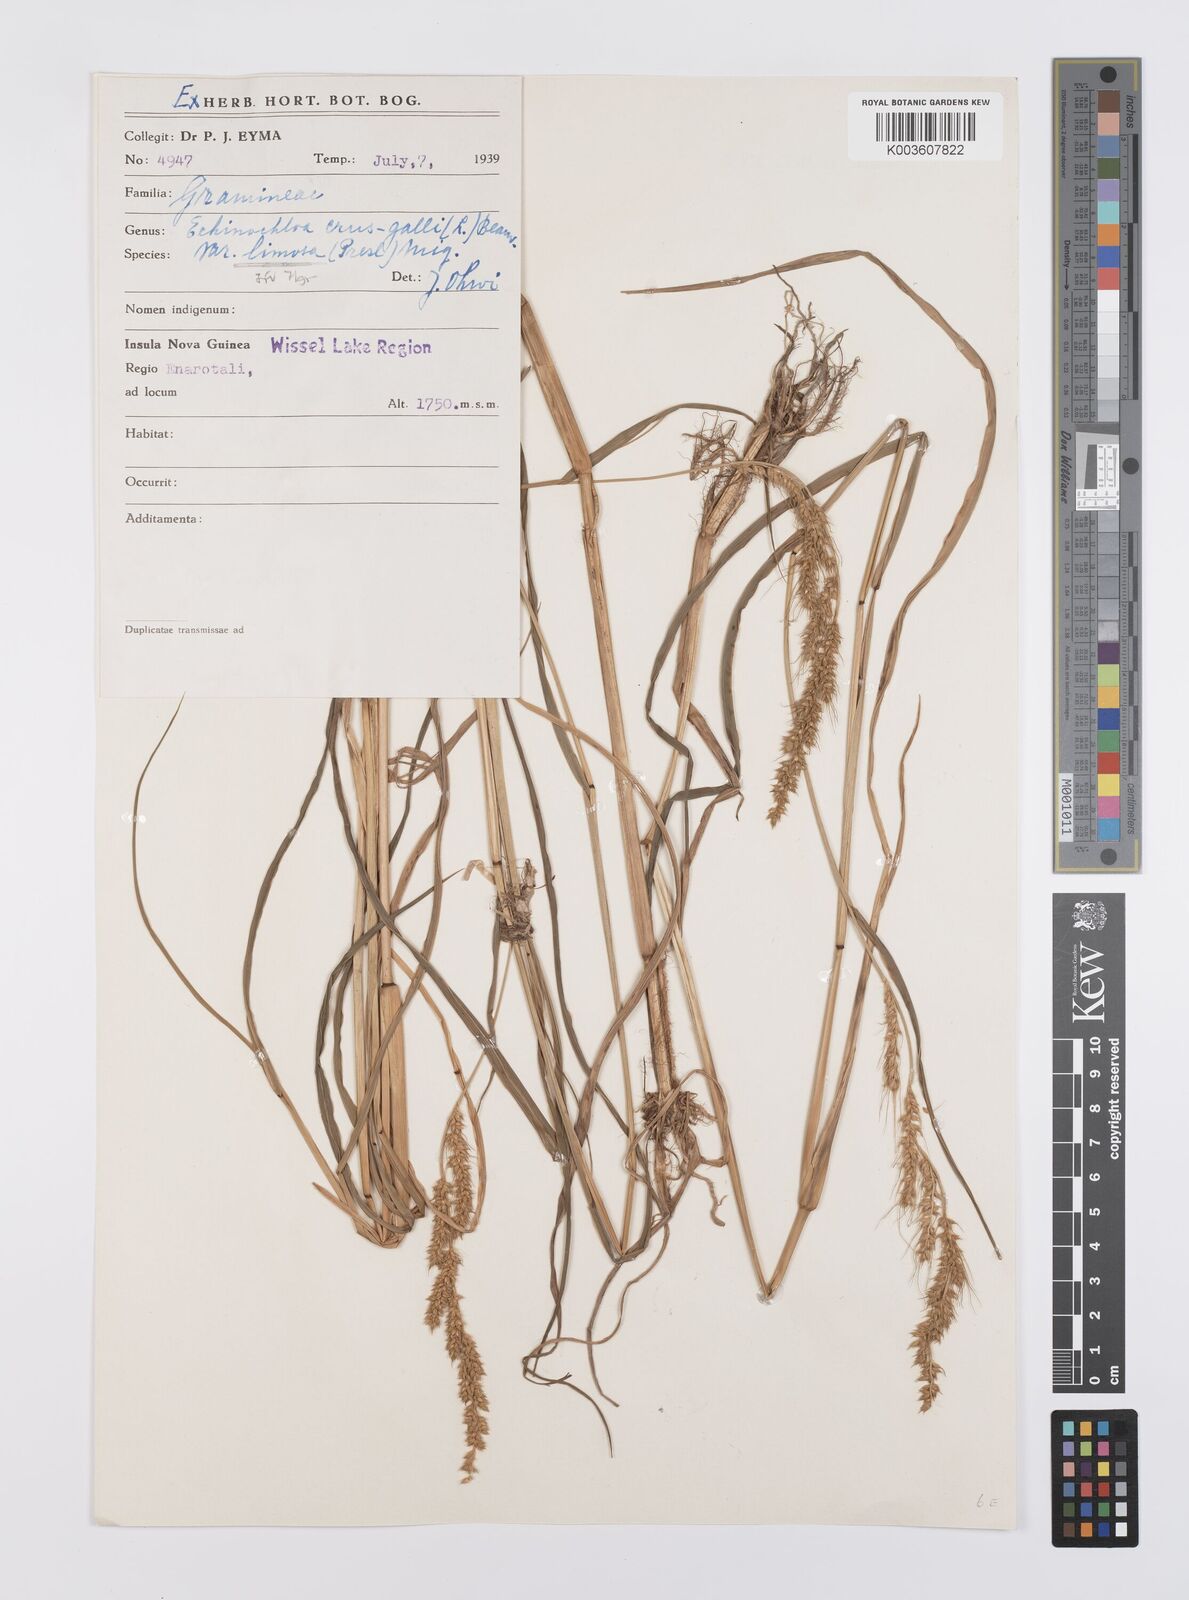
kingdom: Plantae
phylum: Tracheophyta
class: Liliopsida
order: Poales
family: Poaceae
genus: Echinochloa
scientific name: Echinochloa crus-galli
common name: Cockspur
